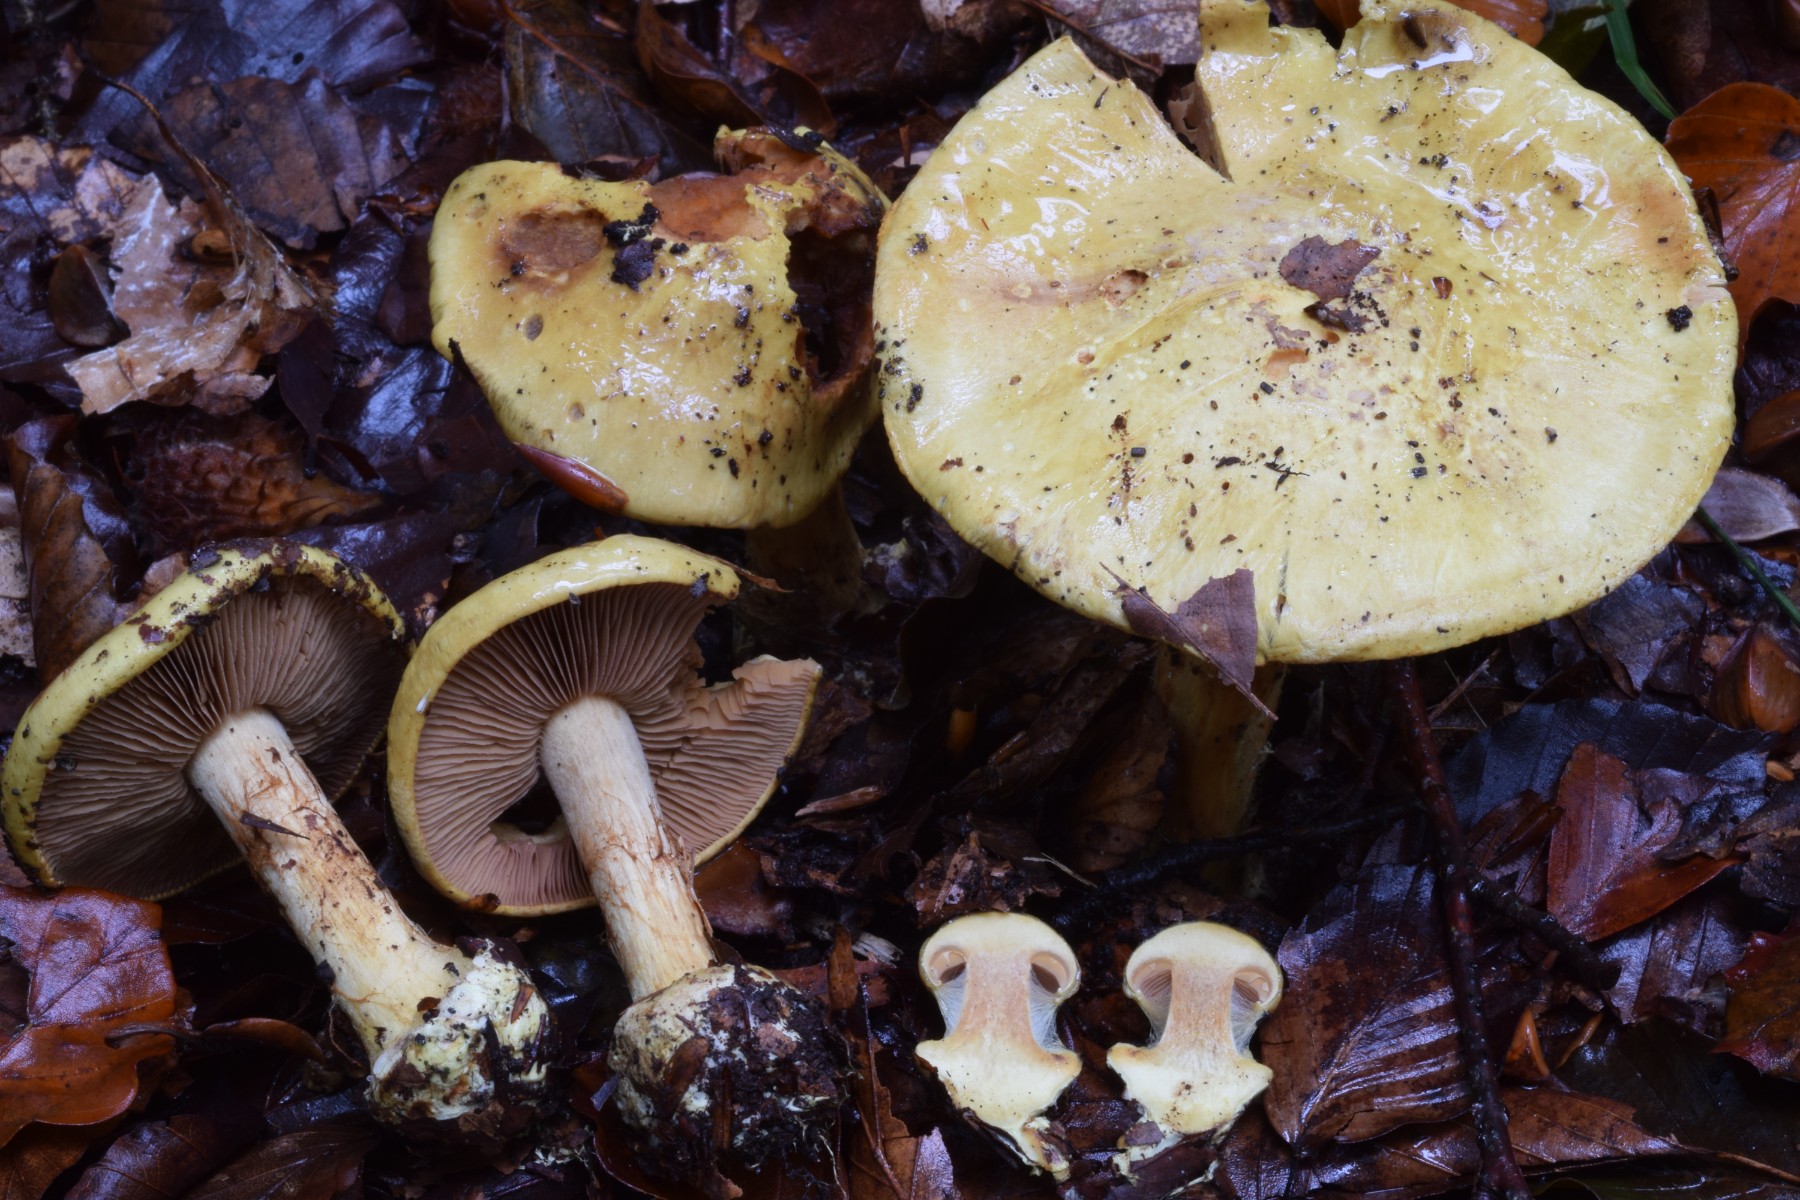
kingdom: Fungi
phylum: Basidiomycota
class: Agaricomycetes
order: Agaricales
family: Cortinariaceae
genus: Calonarius
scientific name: Calonarius fulvocitrinus
